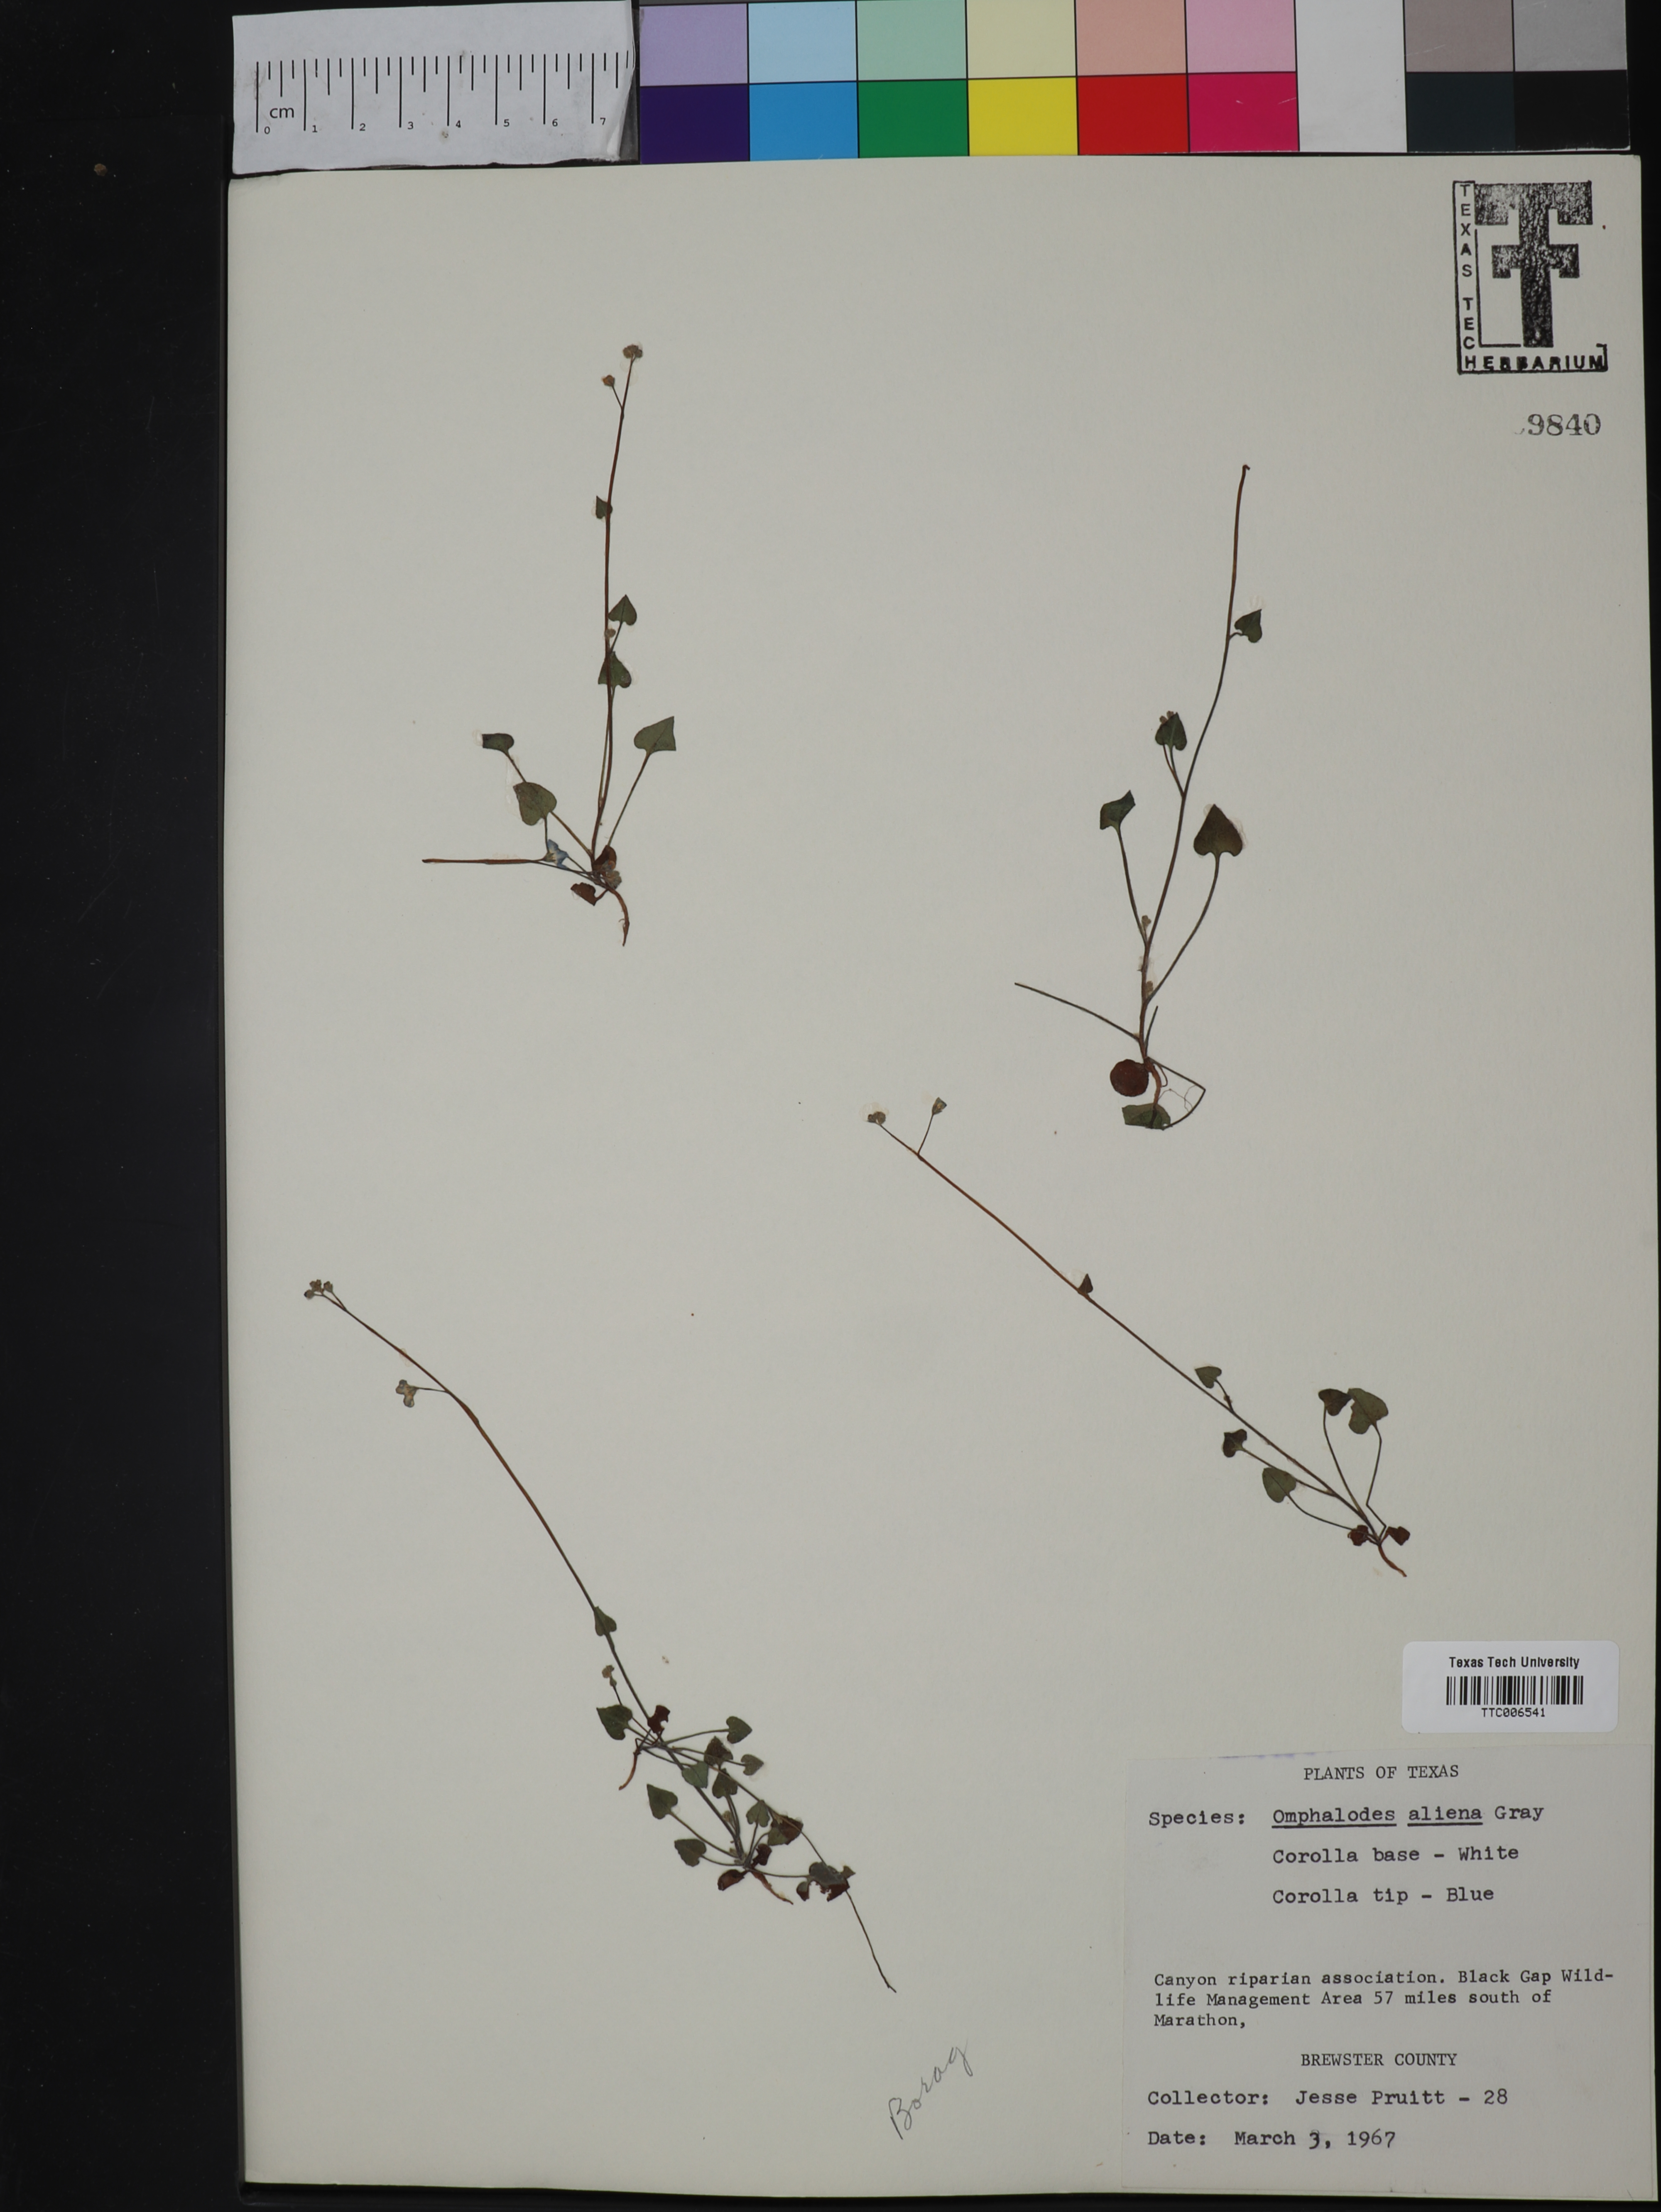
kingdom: Plantae
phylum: Tracheophyta
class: Magnoliopsida
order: Boraginales
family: Boraginaceae
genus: Omphalodes
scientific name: Omphalodes aliena
